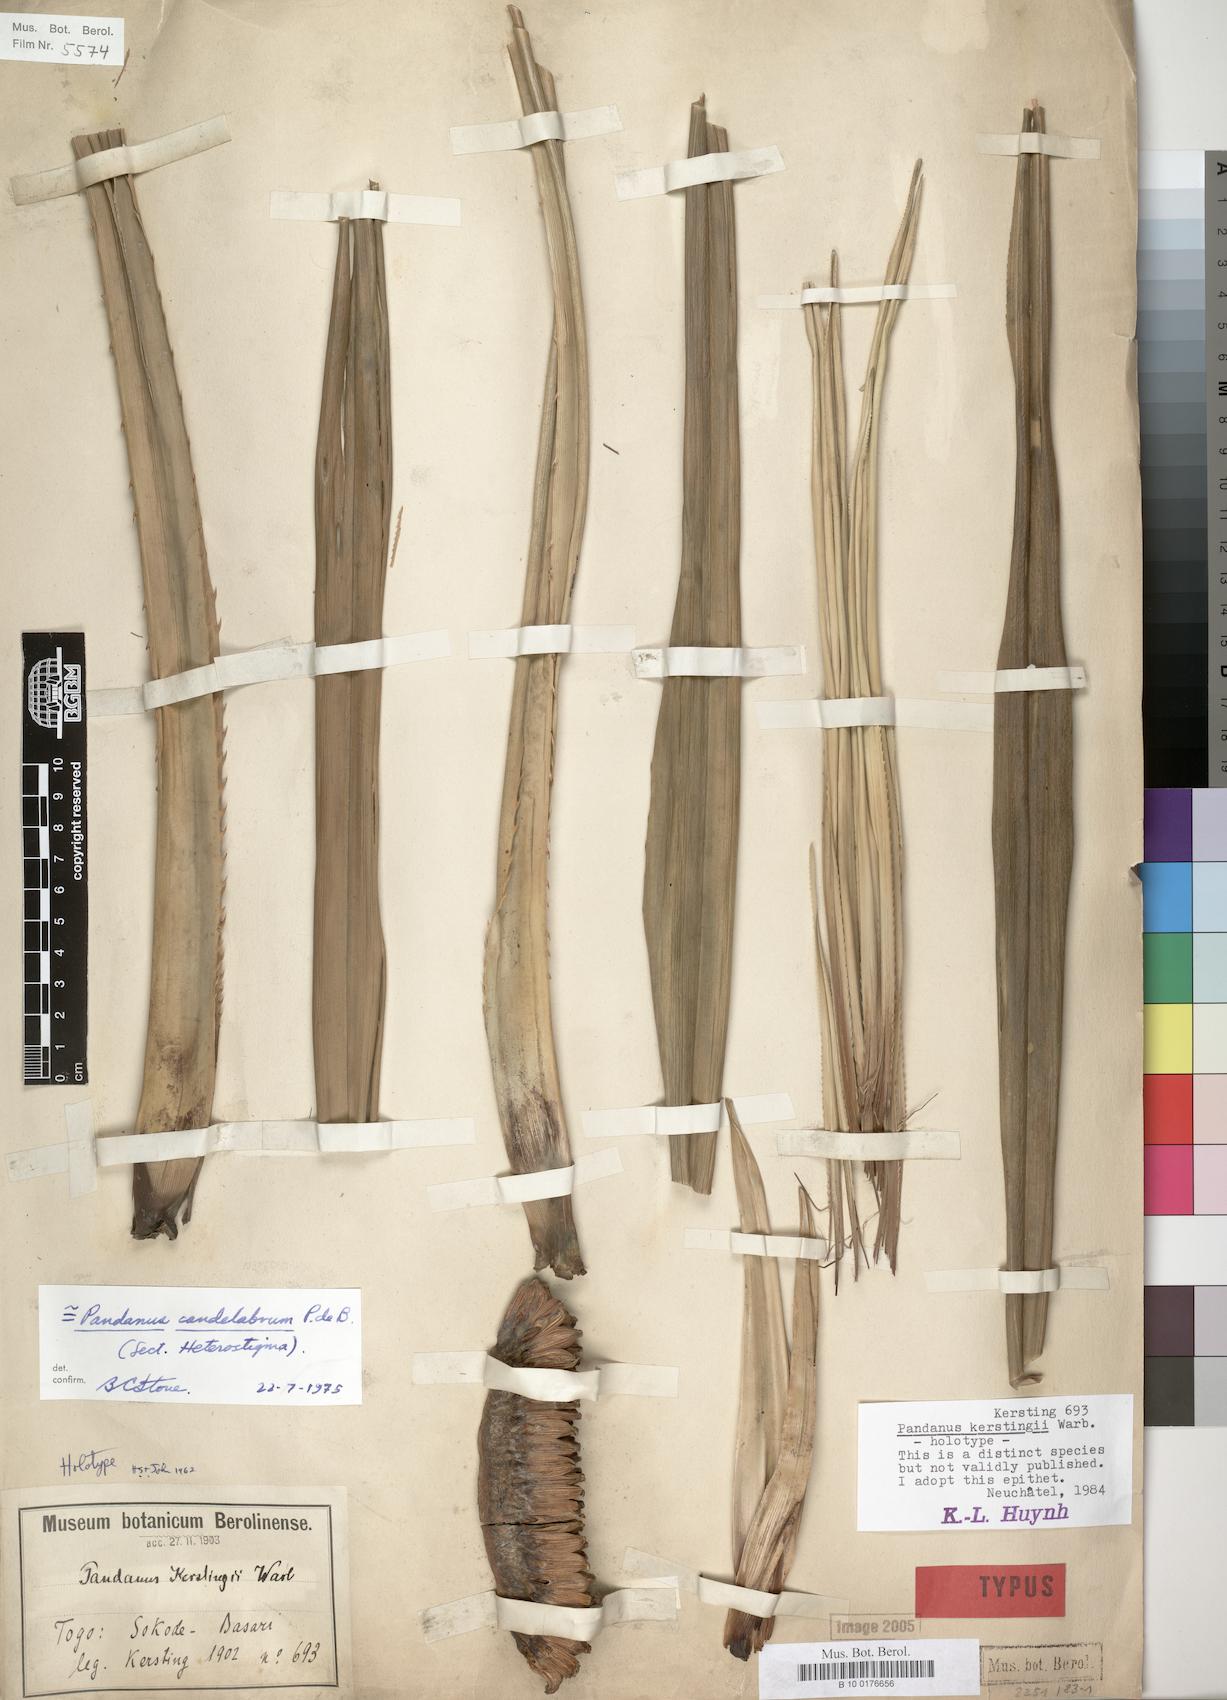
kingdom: Plantae
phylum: Tracheophyta
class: Liliopsida
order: Pandanales
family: Pandanaceae
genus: Pandanus
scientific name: Pandanus candelabrum
